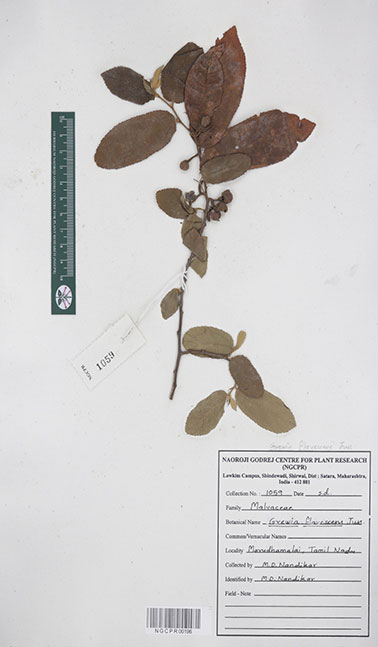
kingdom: Plantae
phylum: Tracheophyta
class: Magnoliopsida
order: Malvales
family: Malvaceae
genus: Grewia
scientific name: Grewia flavescens
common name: Sandpaper raisin
